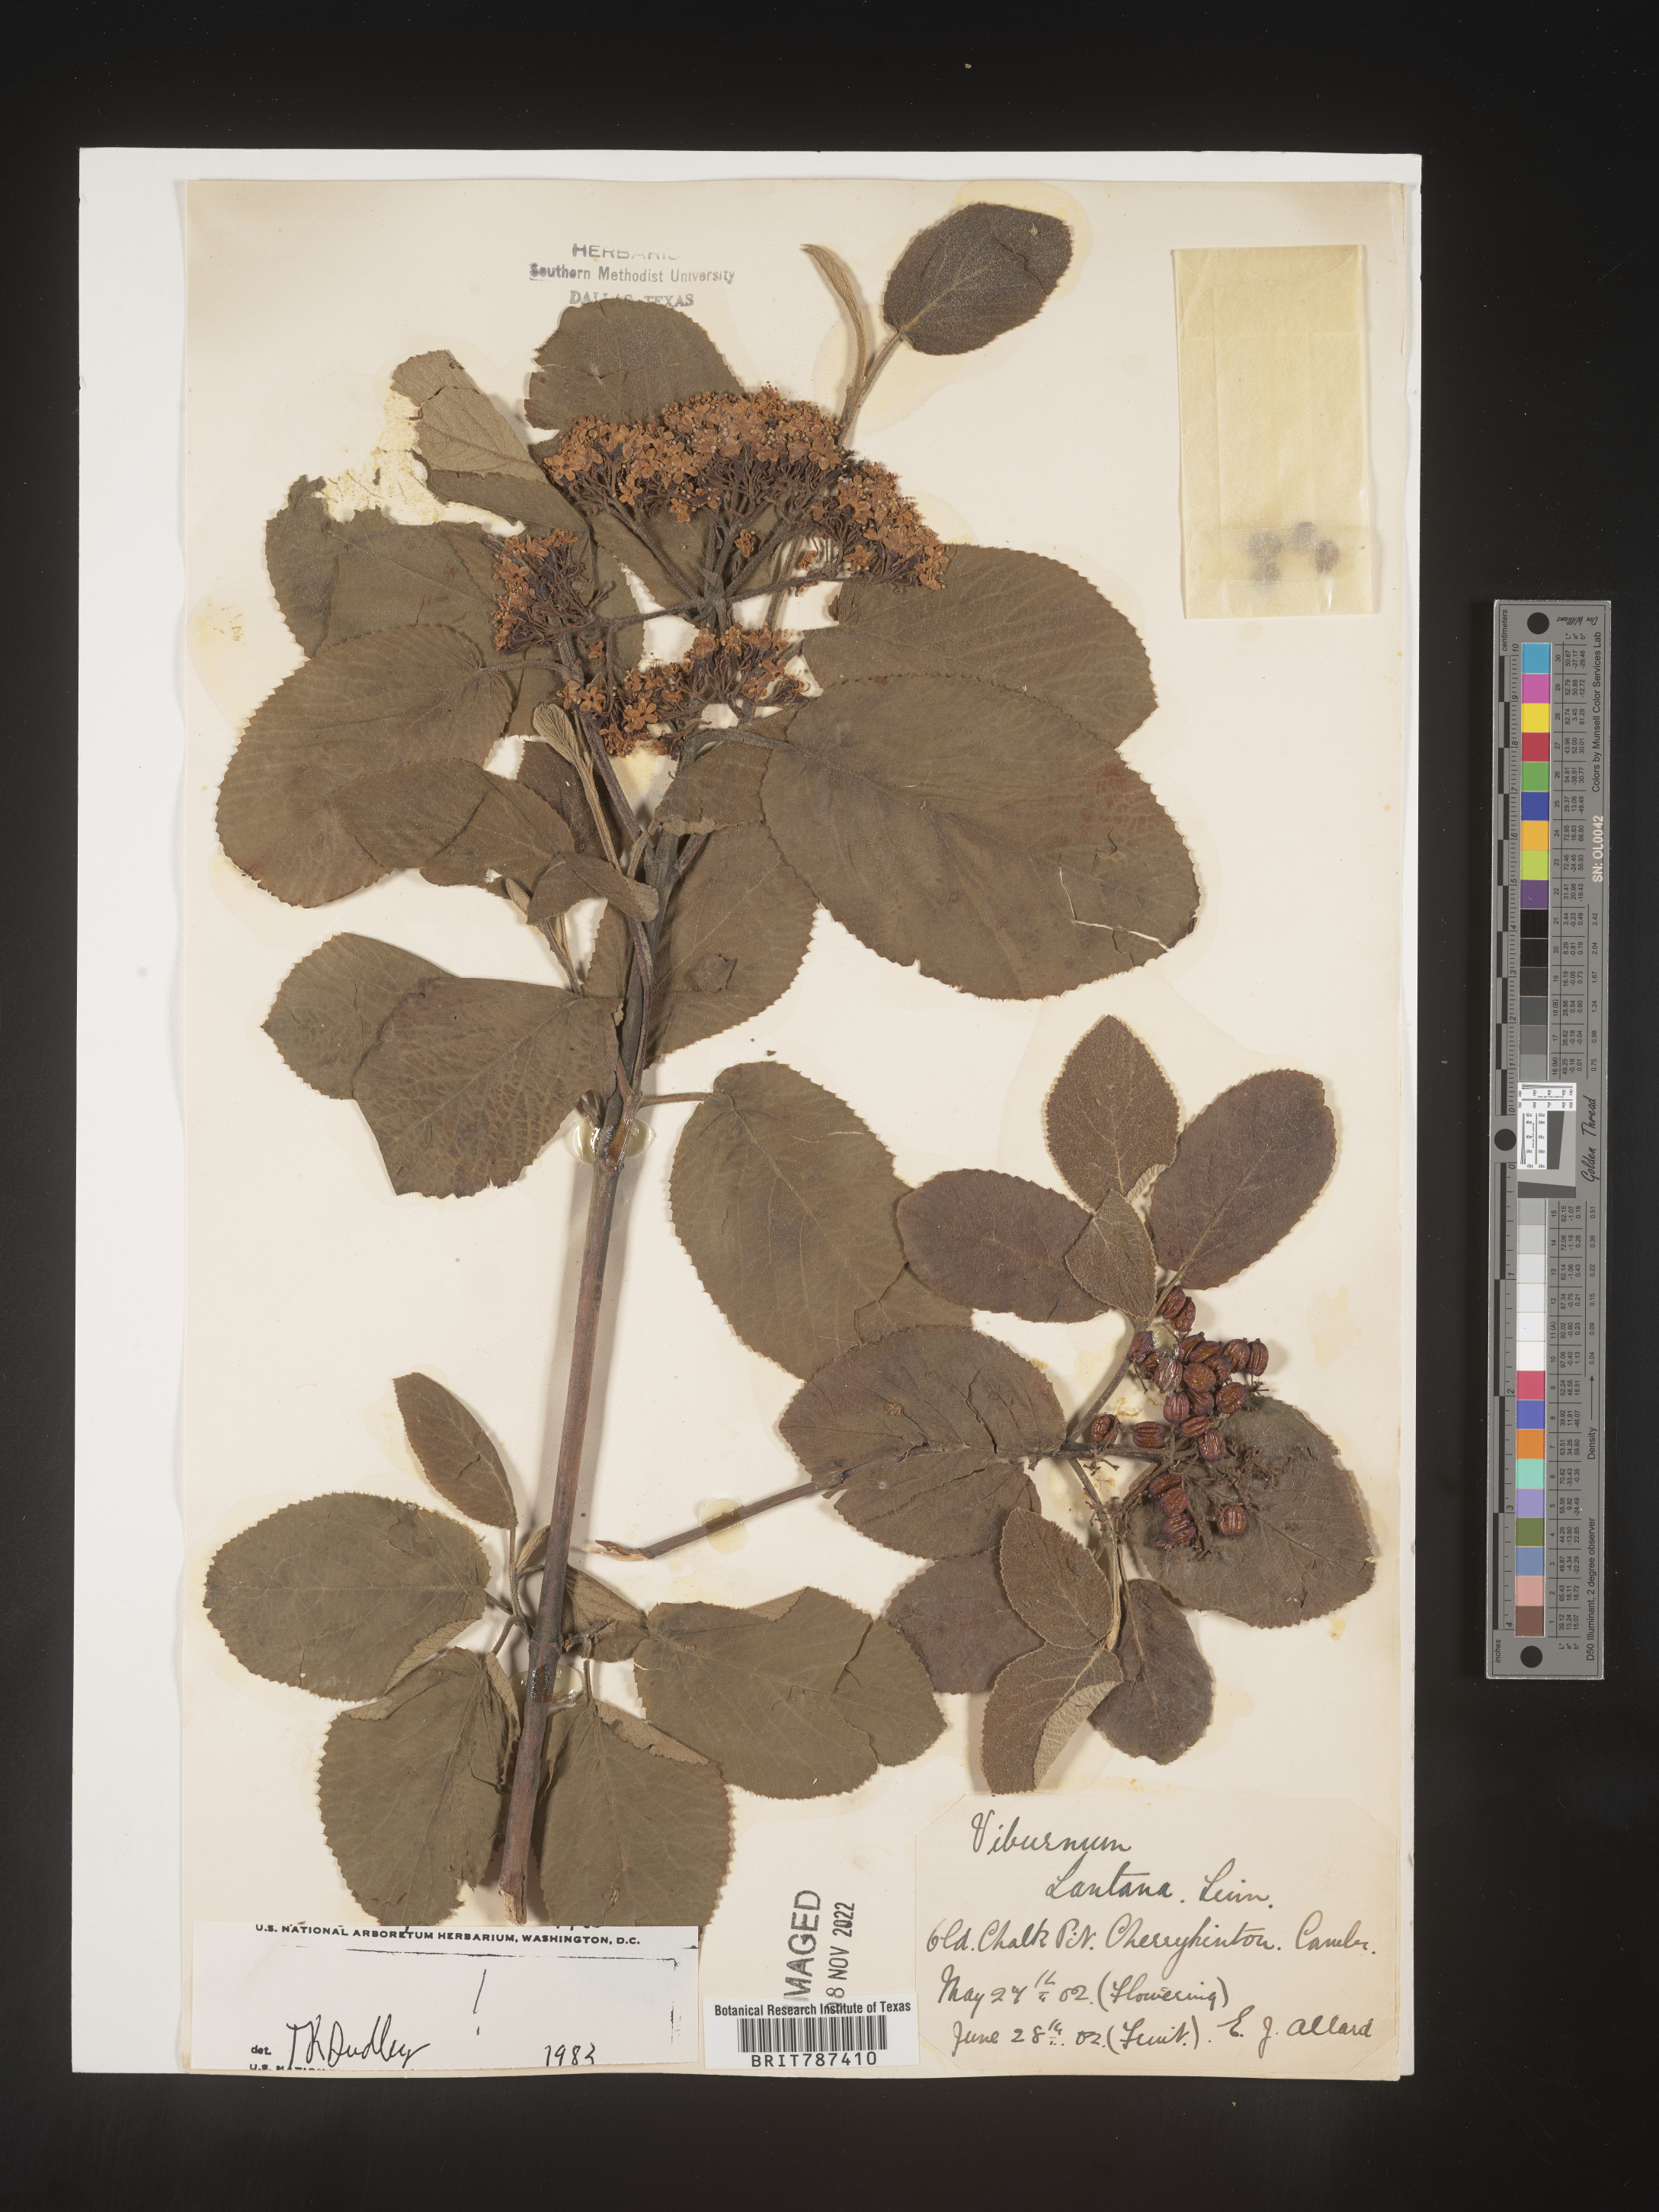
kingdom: Plantae
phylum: Tracheophyta
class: Magnoliopsida
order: Dipsacales
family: Viburnaceae
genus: Viburnum
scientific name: Viburnum
